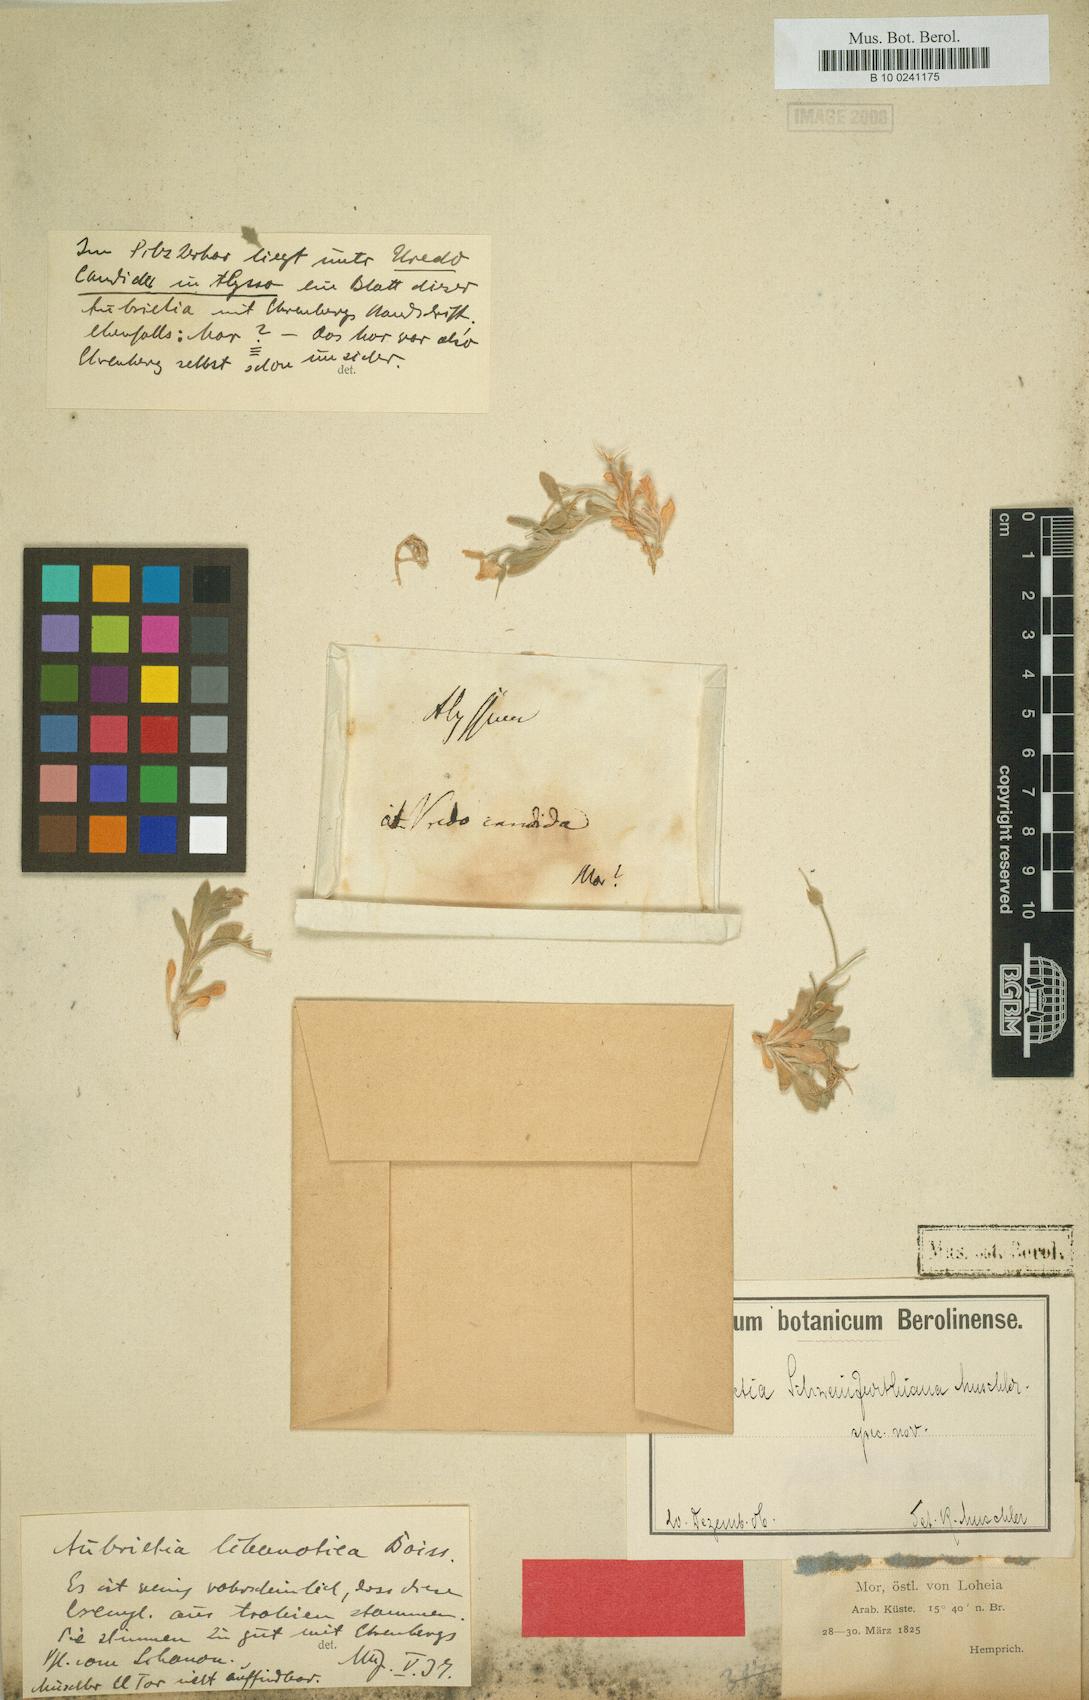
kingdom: Plantae
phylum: Tracheophyta
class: Magnoliopsida
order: Brassicales
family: Brassicaceae
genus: Aubrieta
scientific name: Aubrieta libanotica
